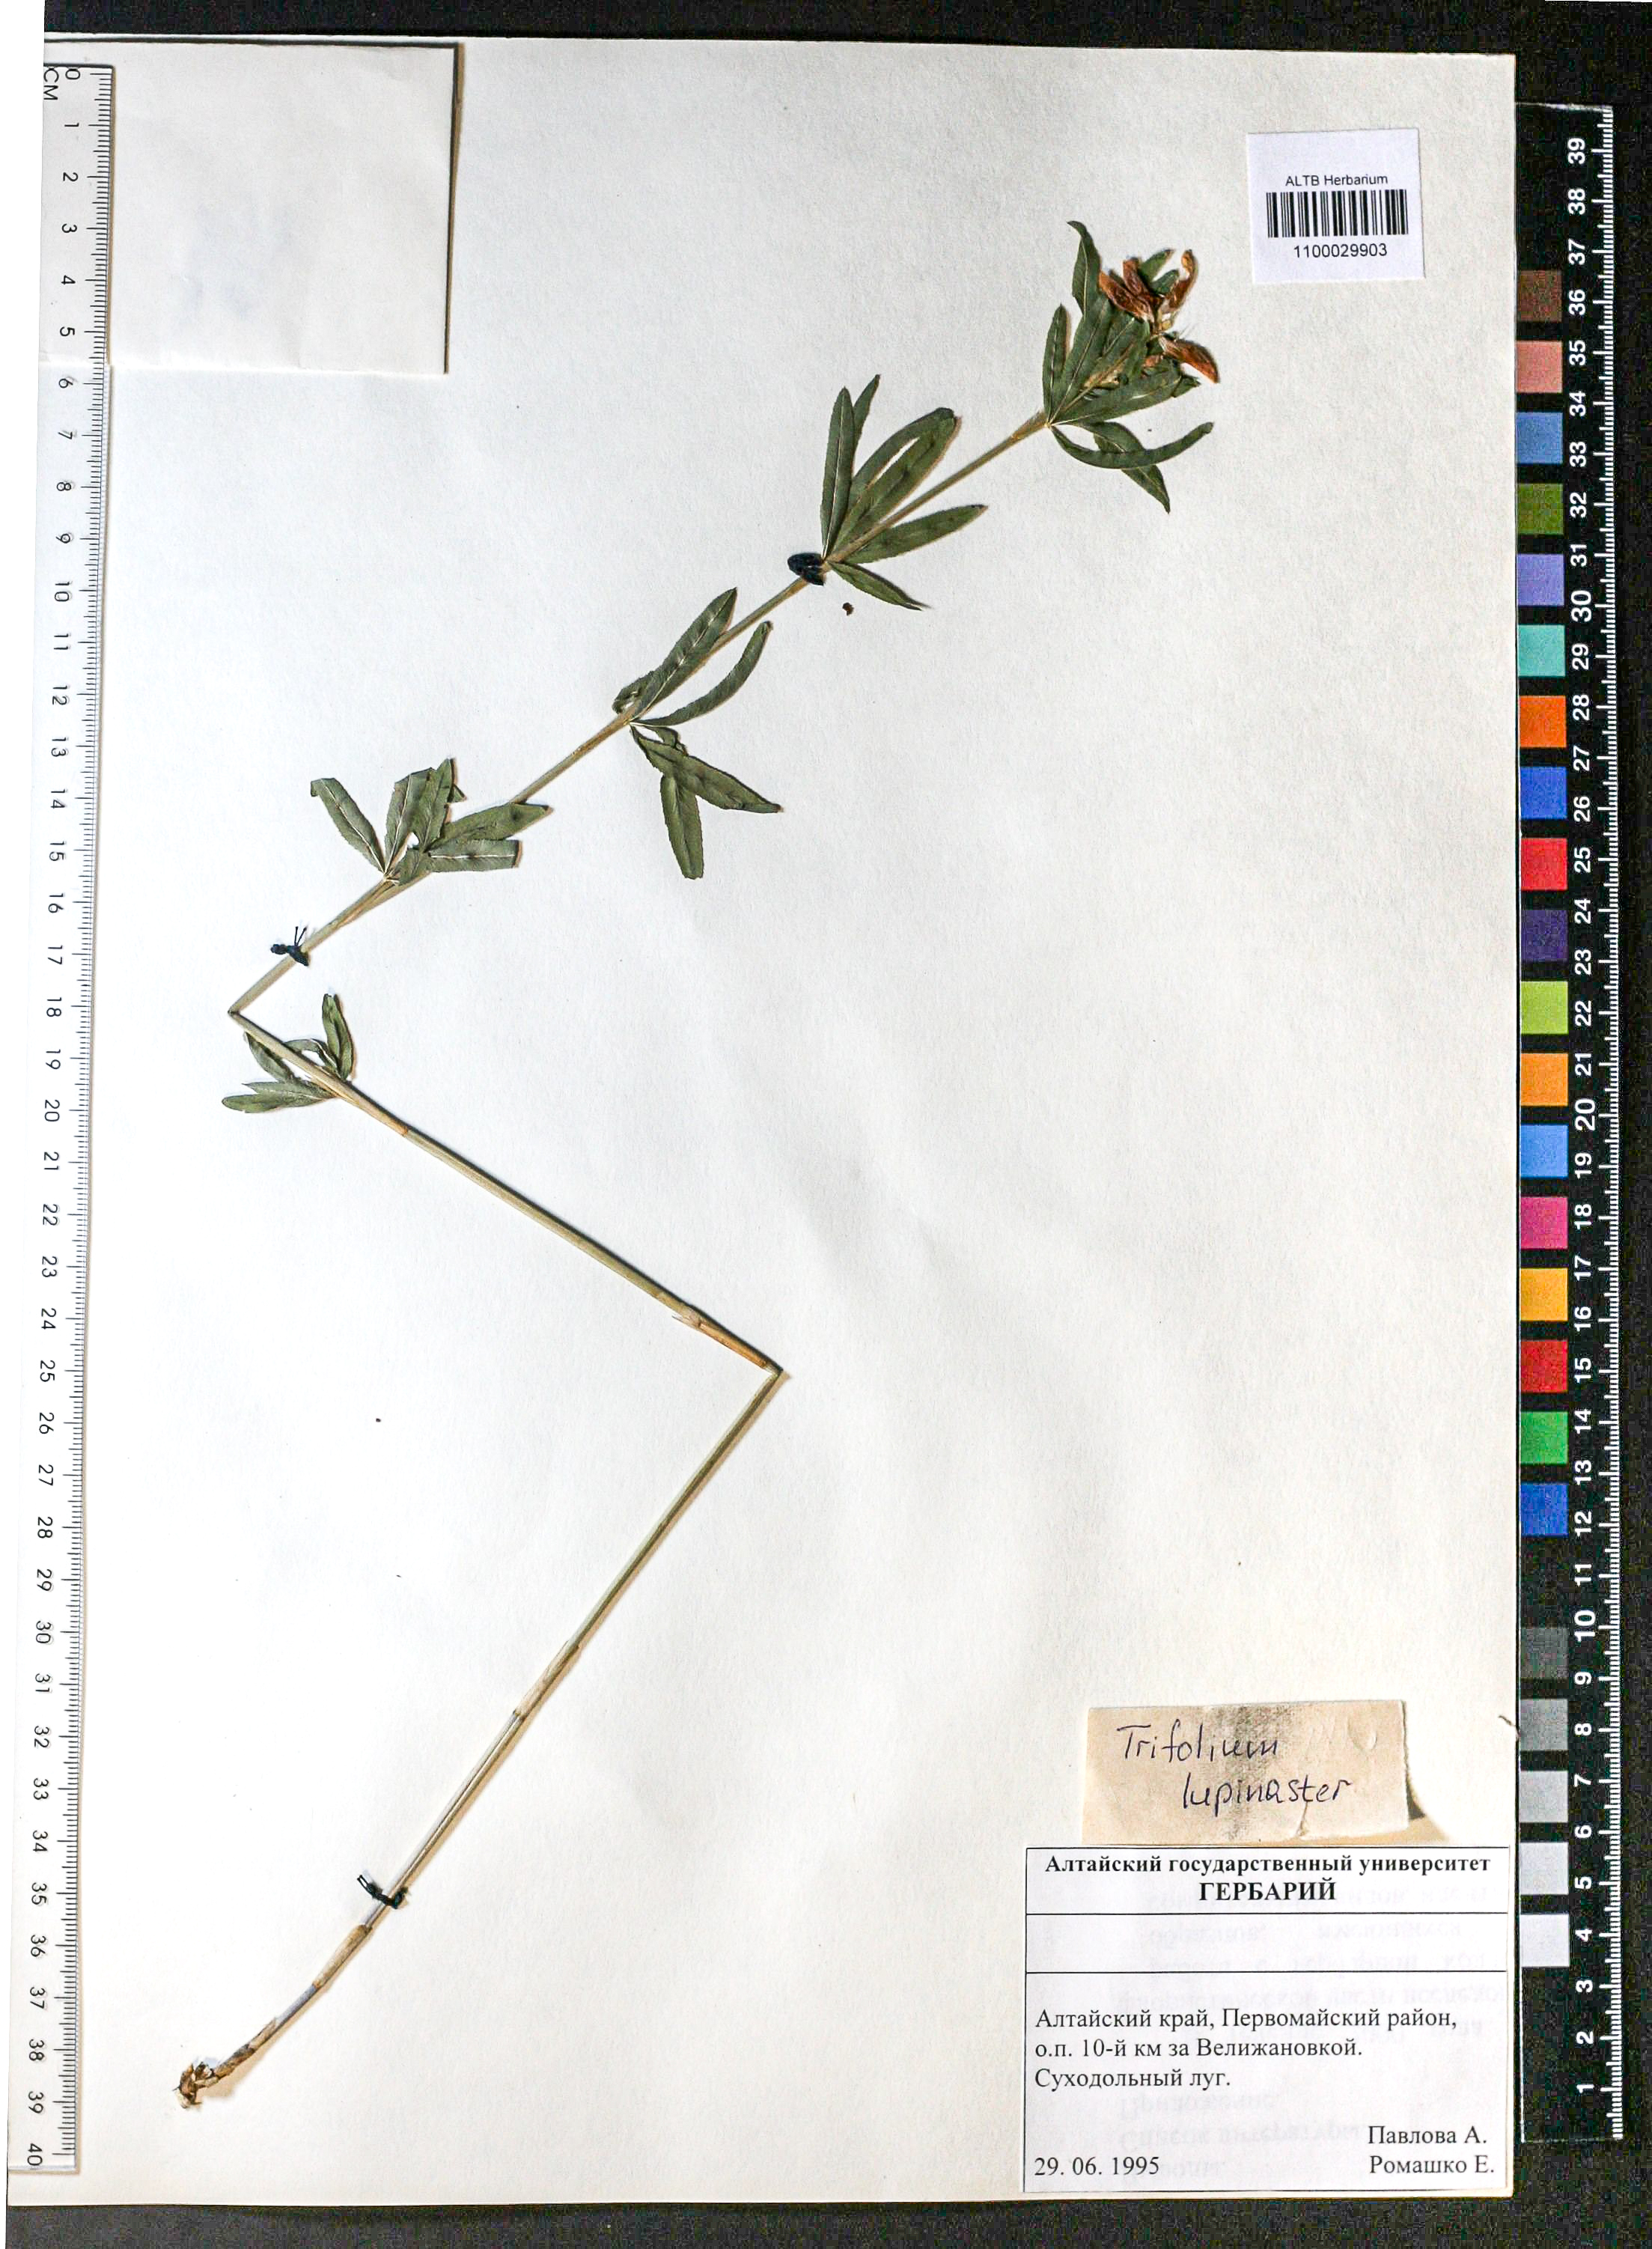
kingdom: Plantae
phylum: Tracheophyta
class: Magnoliopsida
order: Fabales
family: Fabaceae
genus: Trifolium
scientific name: Trifolium lupinaster
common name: Lupine clover
